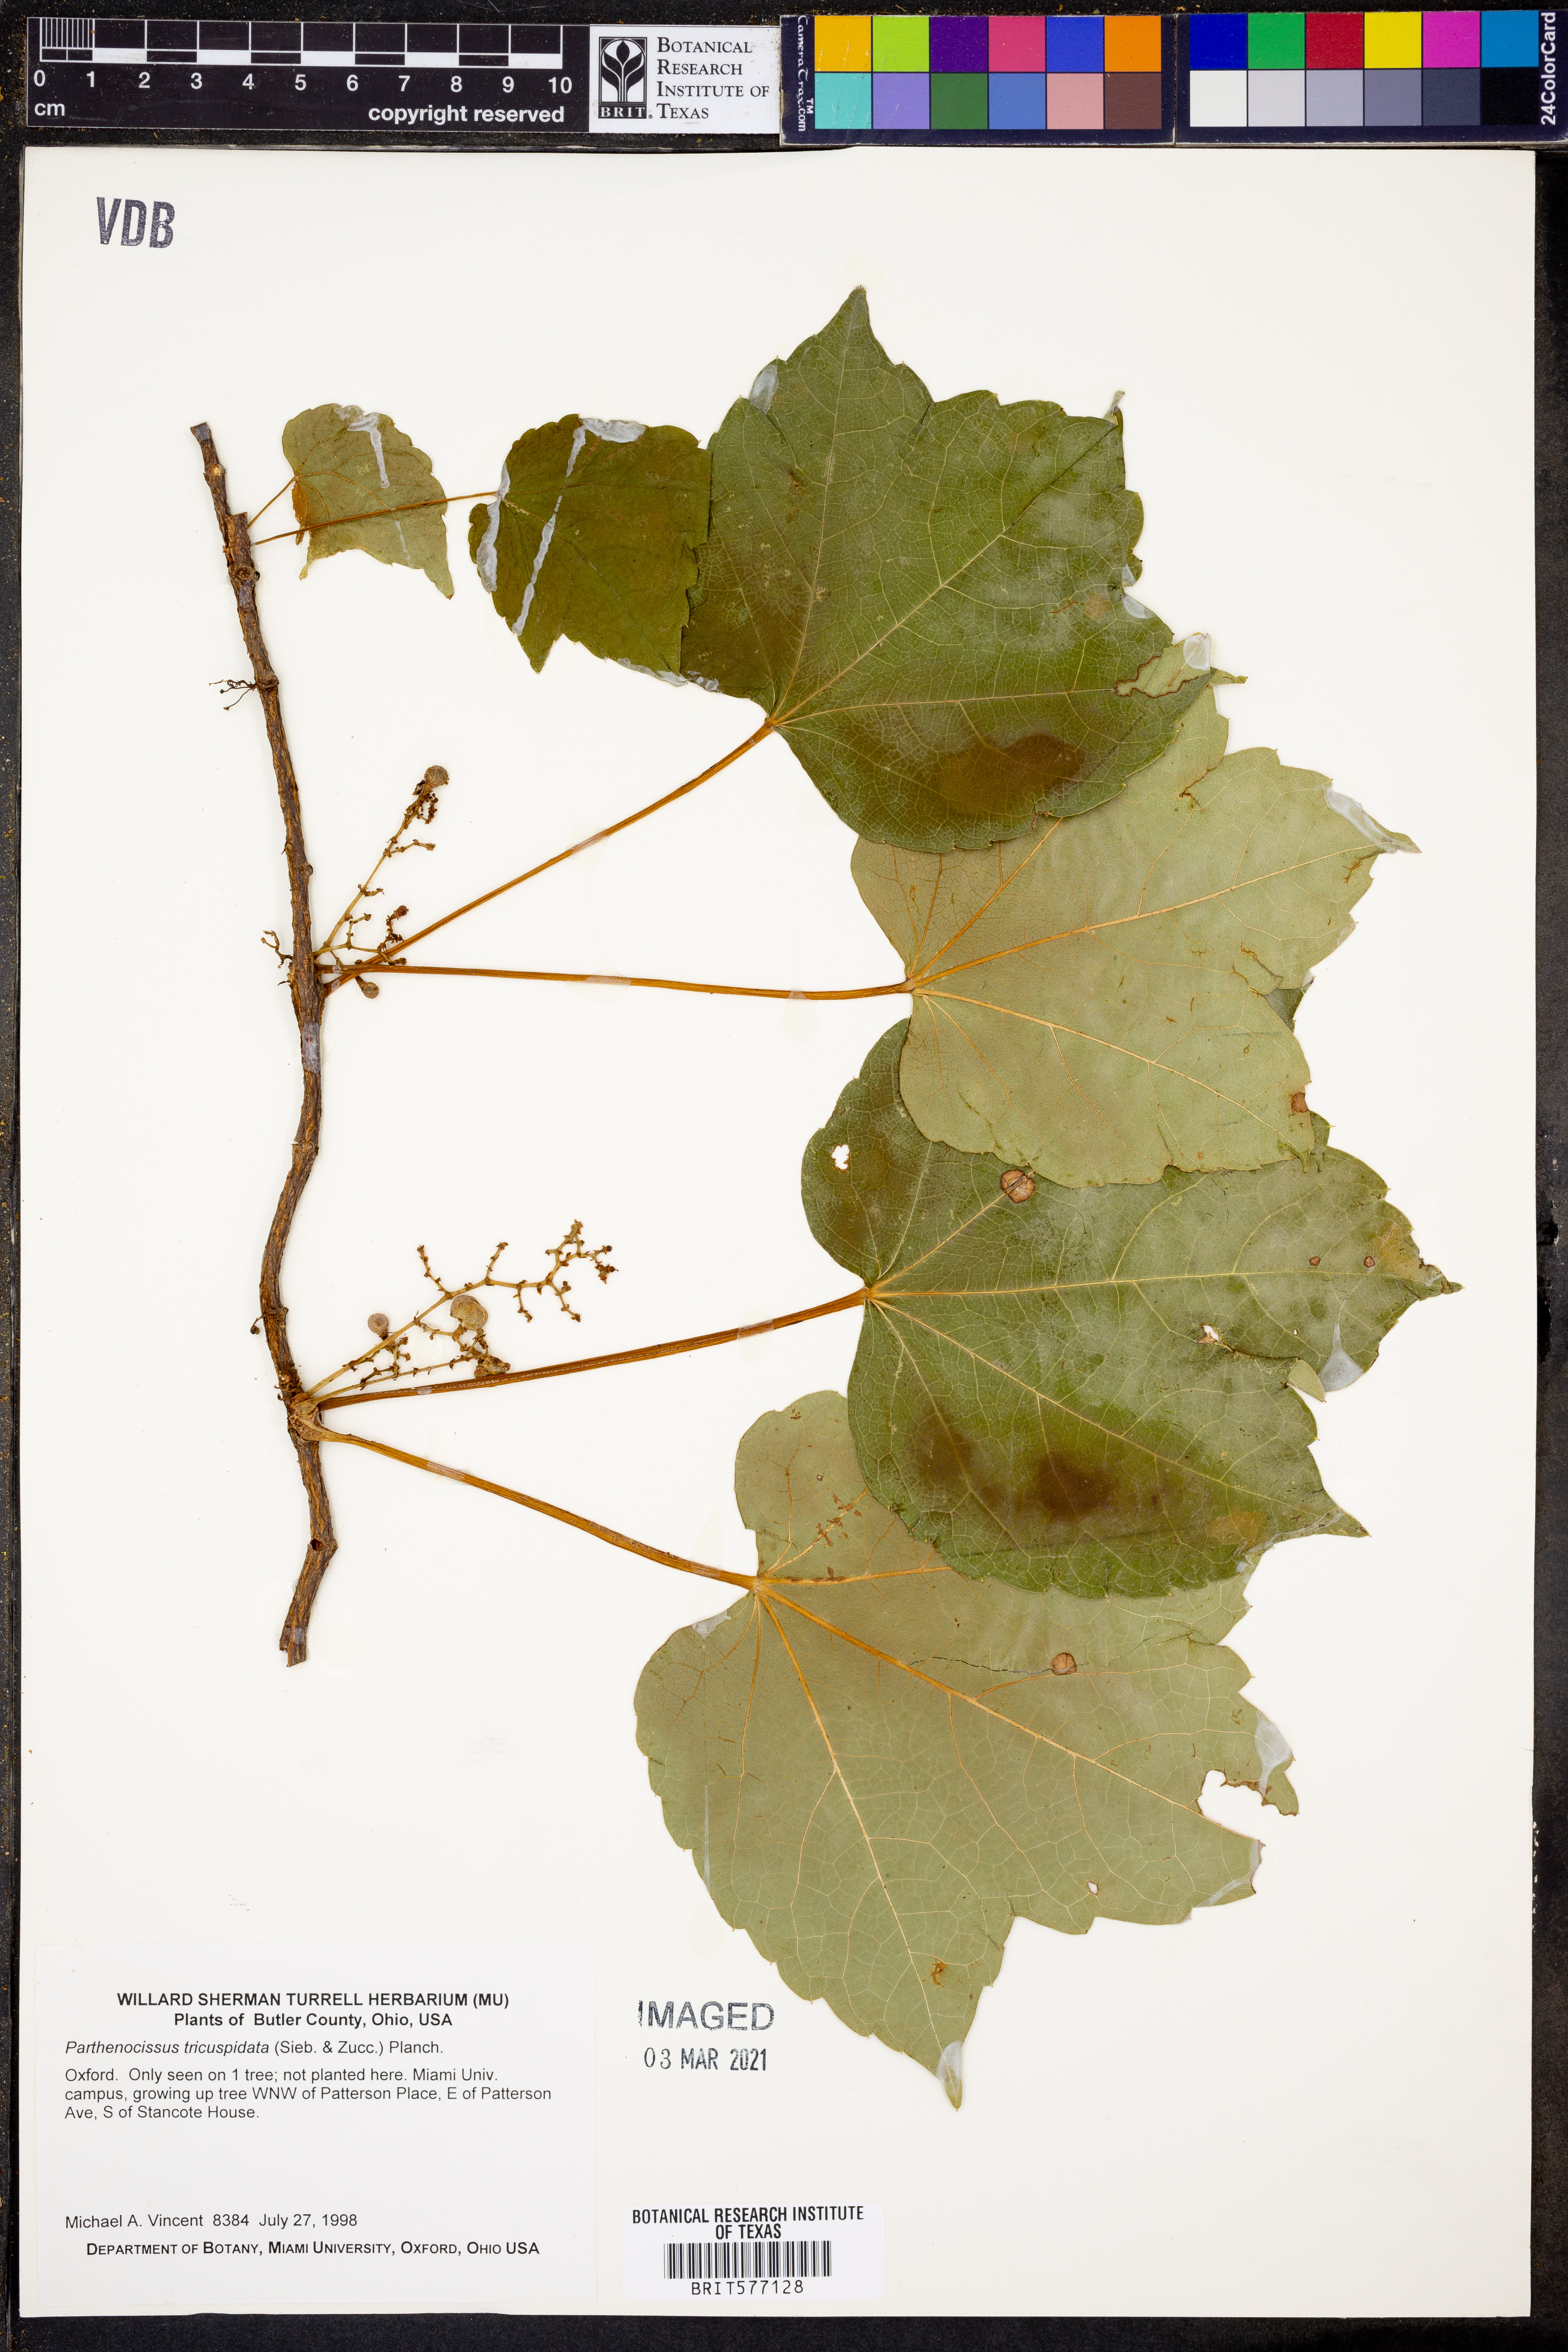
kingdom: Plantae
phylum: Tracheophyta
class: Magnoliopsida
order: Vitales
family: Vitaceae
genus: Parthenocissus
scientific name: Parthenocissus tricuspidata
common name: Boston ivy
